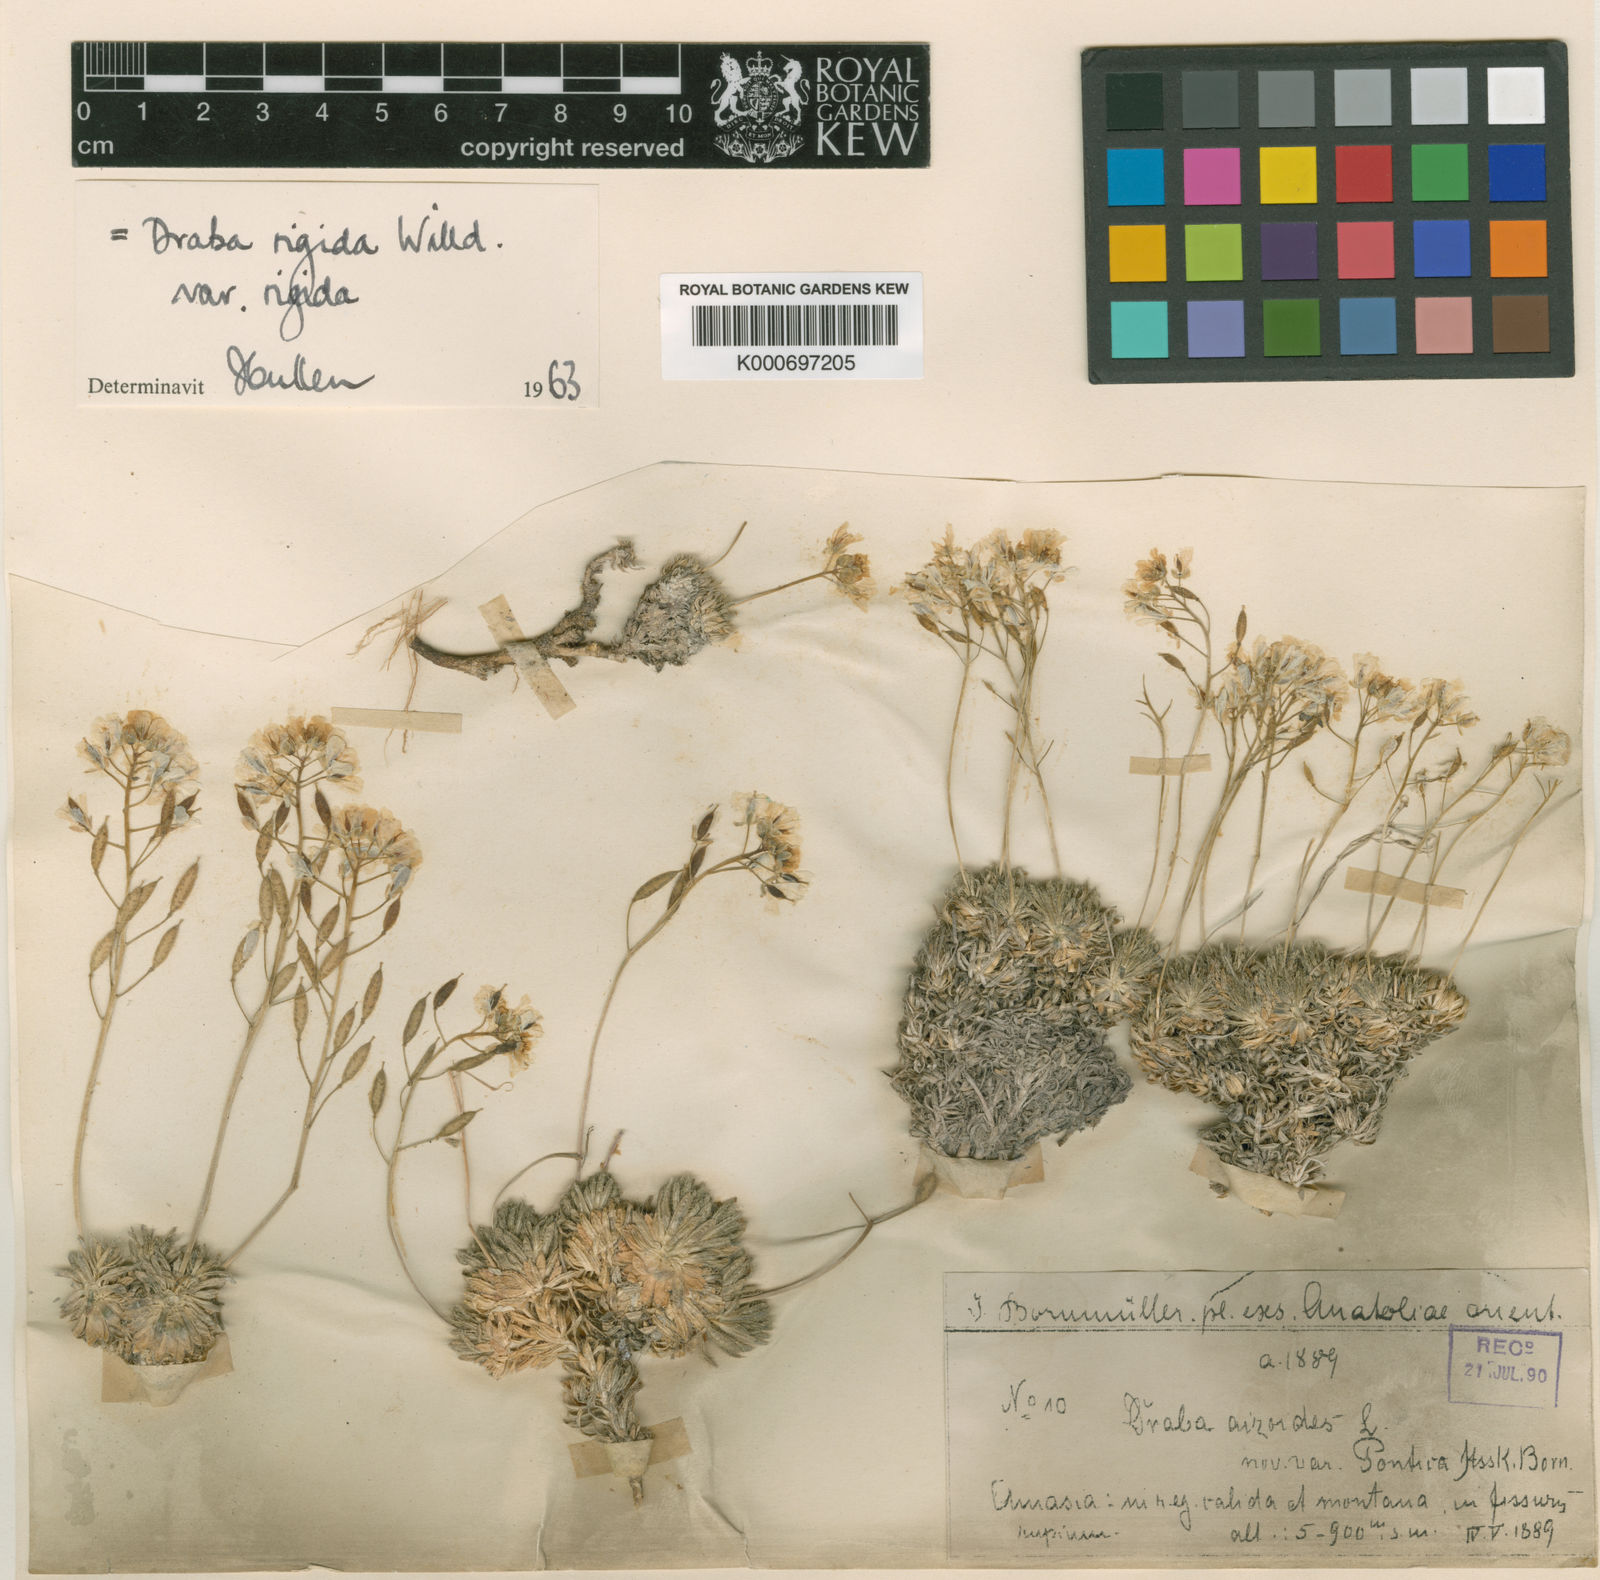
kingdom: Plantae
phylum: Tracheophyta
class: Magnoliopsida
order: Brassicales
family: Brassicaceae
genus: Draba
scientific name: Draba rigida
